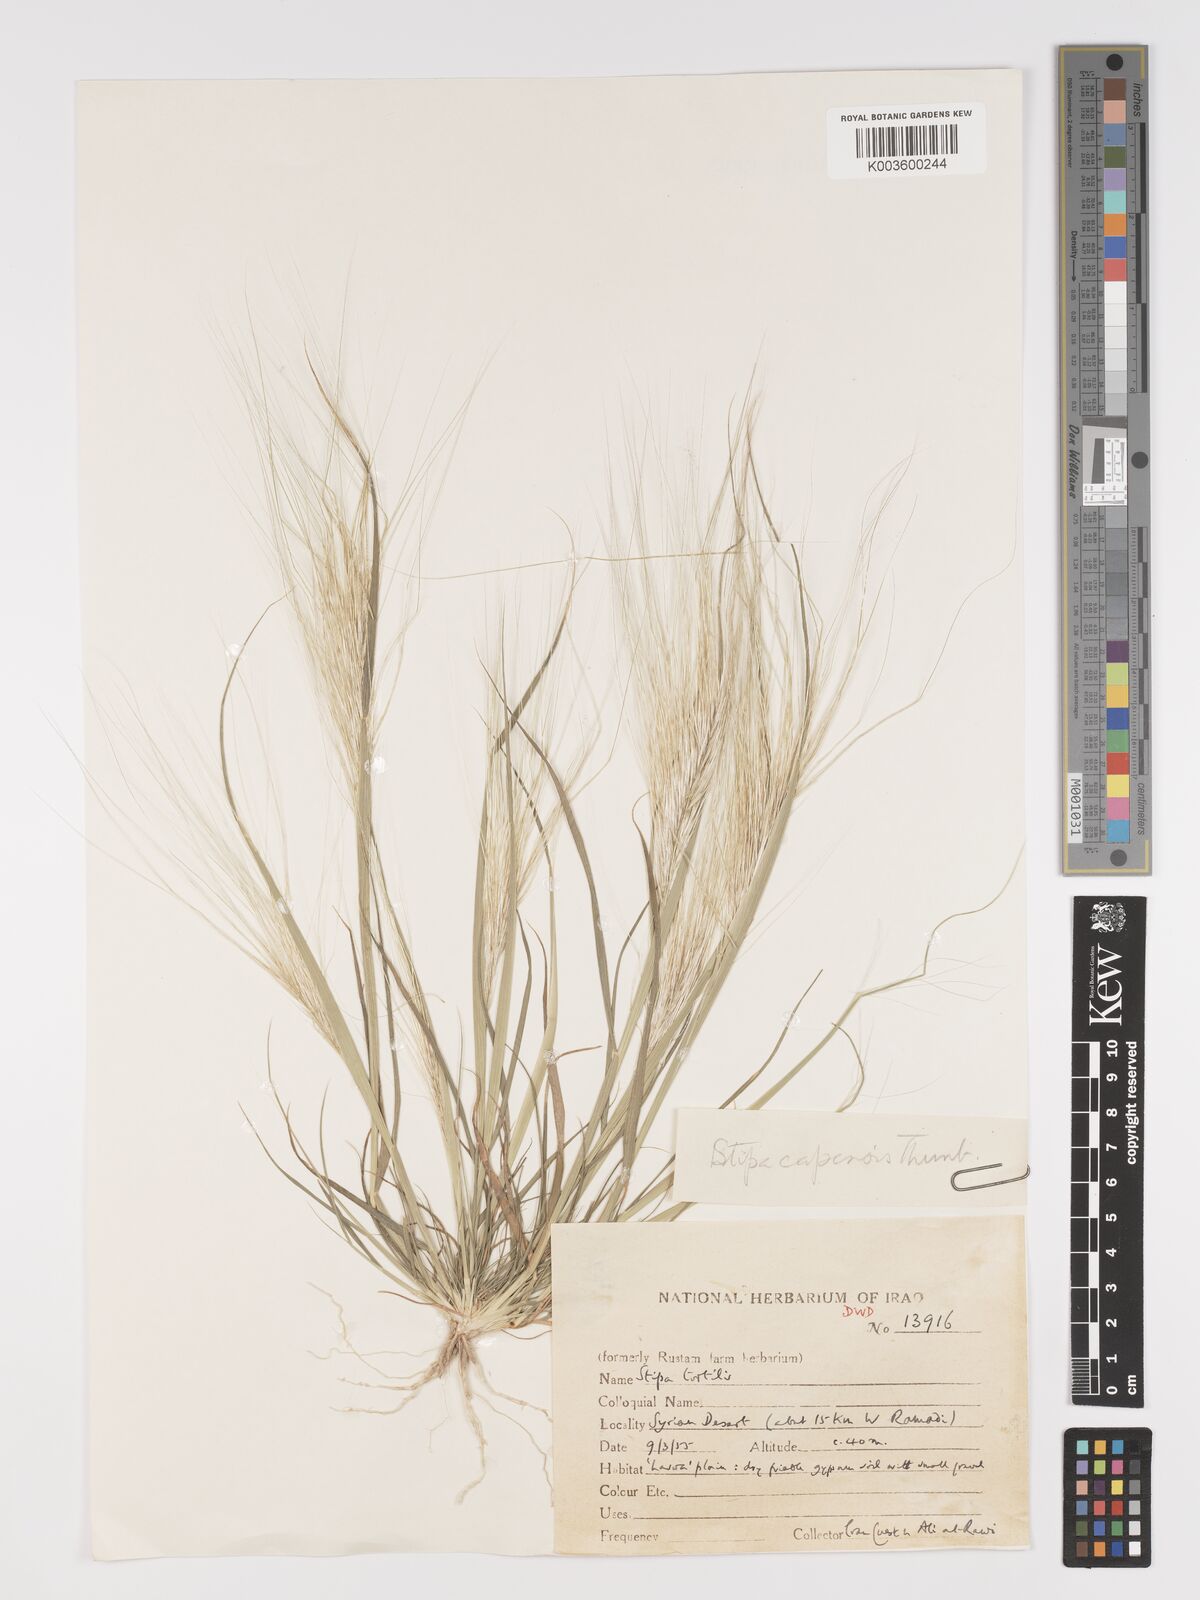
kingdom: Plantae
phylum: Tracheophyta
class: Liliopsida
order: Poales
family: Poaceae
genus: Stipellula
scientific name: Stipellula capensis
